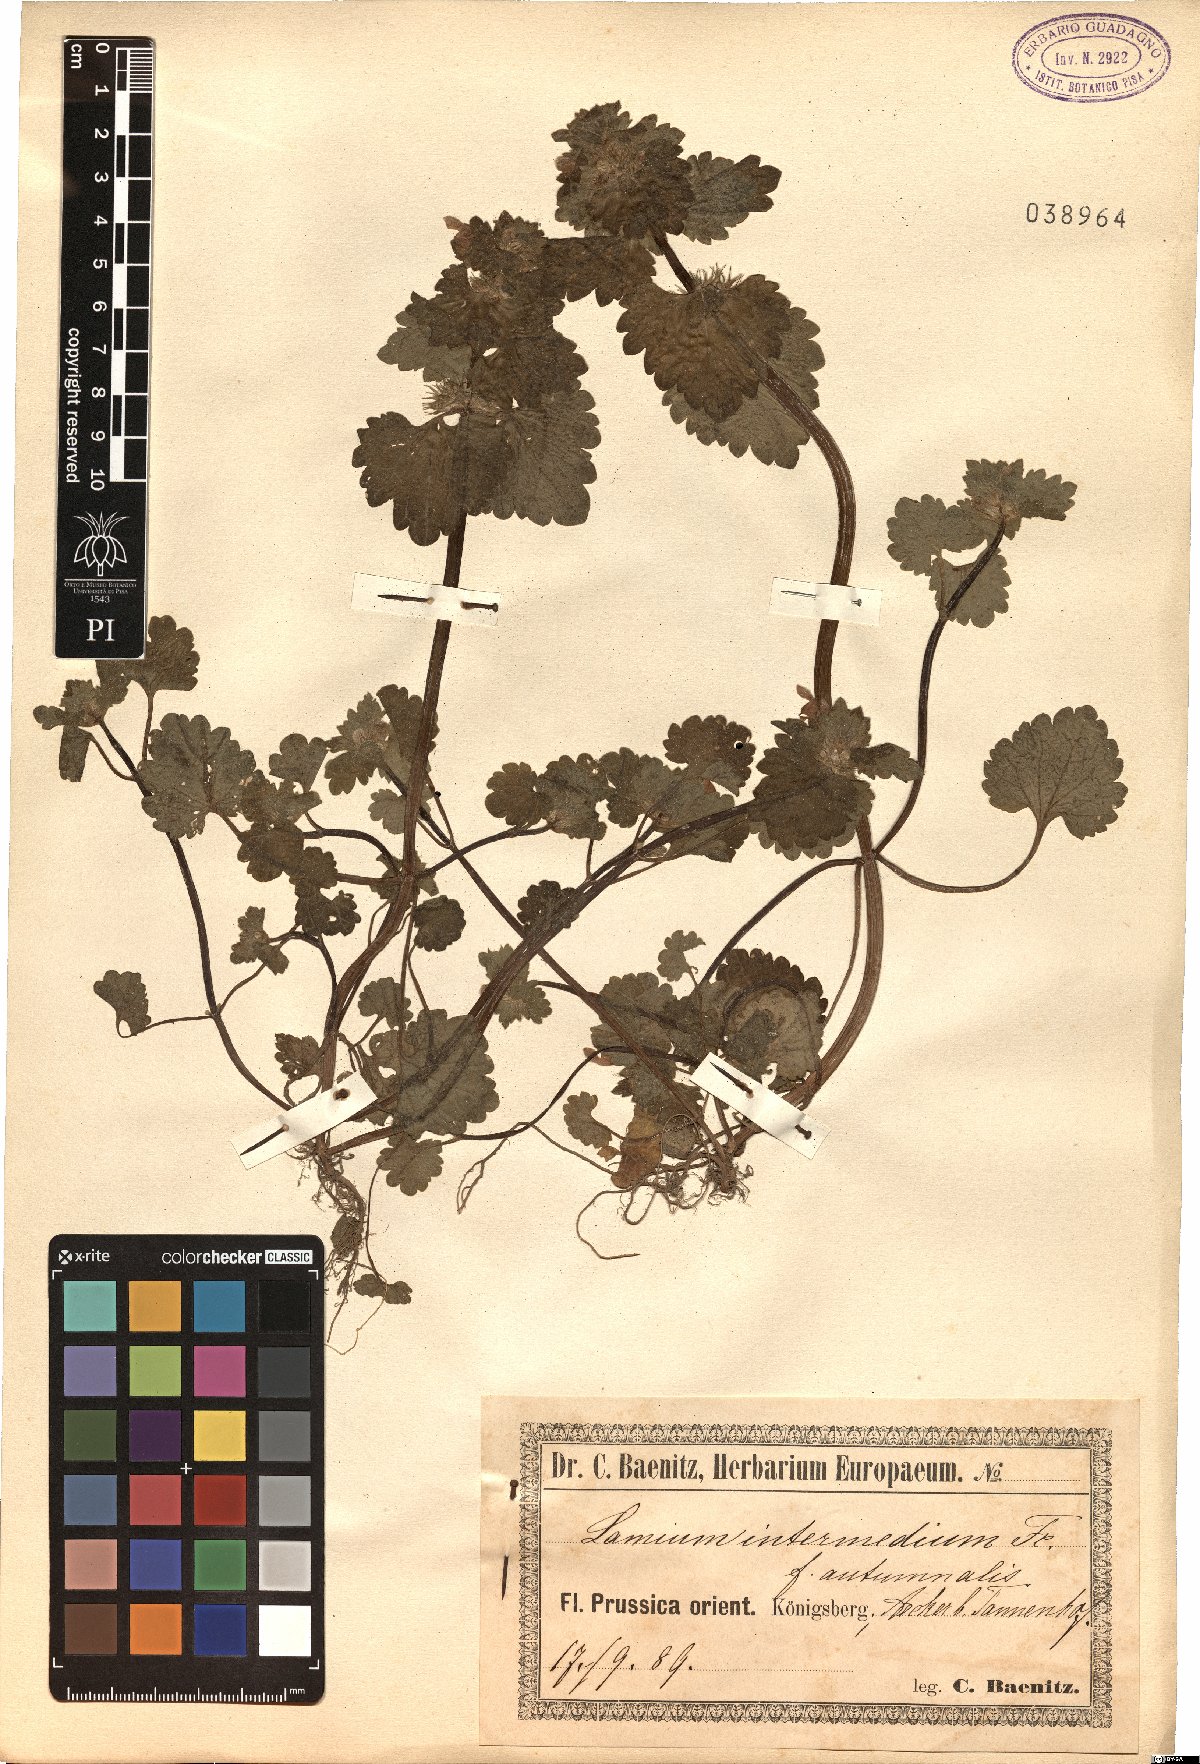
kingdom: Plantae
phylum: Tracheophyta
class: Magnoliopsida
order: Lamiales
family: Lamiaceae
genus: Lamium
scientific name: Lamium confertum
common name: Northern dead-nettle
